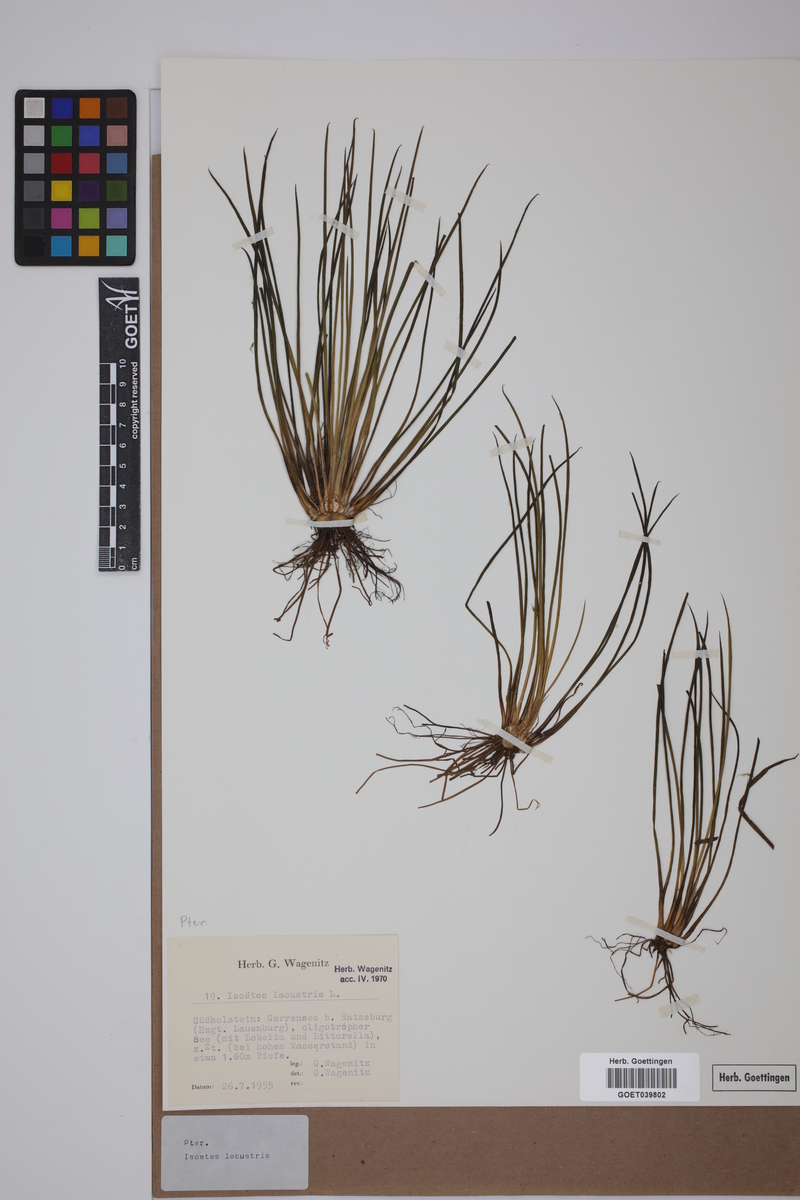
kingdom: Plantae
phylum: Tracheophyta
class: Lycopodiopsida
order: Isoetales
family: Isoetaceae
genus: Isoetes
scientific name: Isoetes lacustris
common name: Common quillwort
